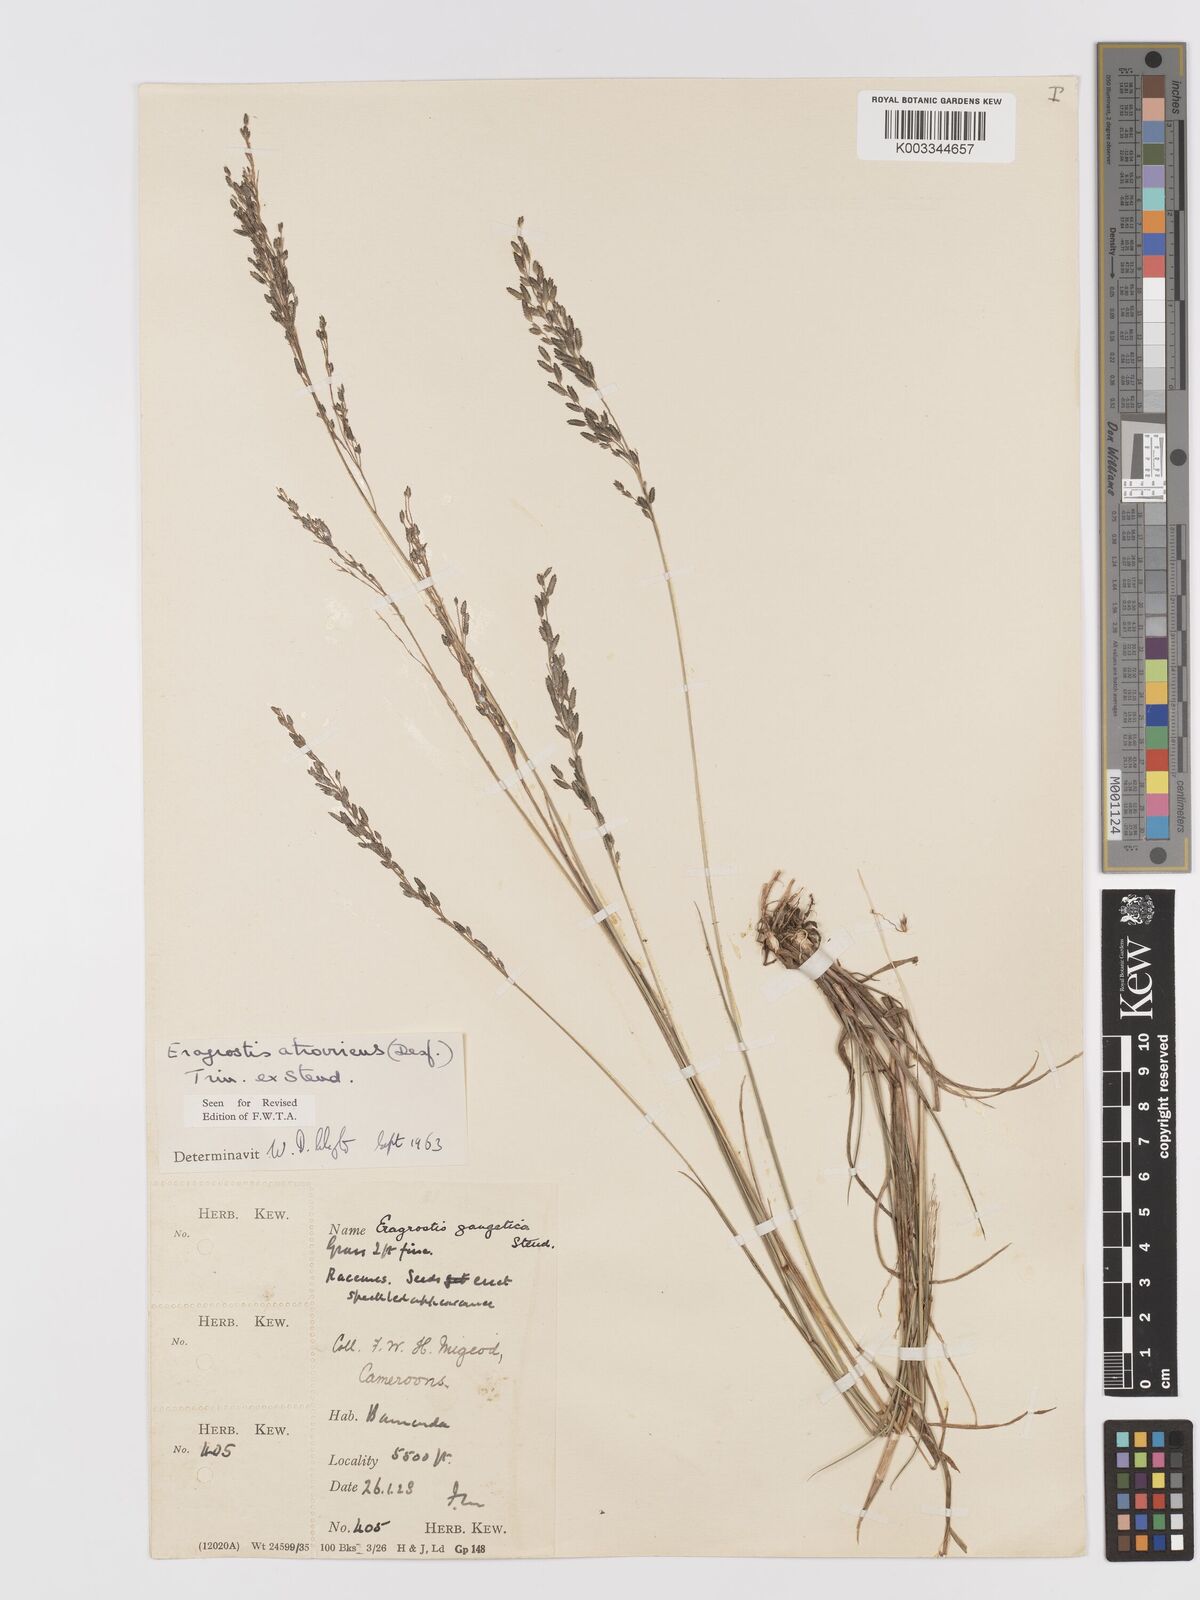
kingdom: Plantae
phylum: Tracheophyta
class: Liliopsida
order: Poales
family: Poaceae
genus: Eragrostis
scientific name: Eragrostis atrovirens
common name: Thalia lovegrass
